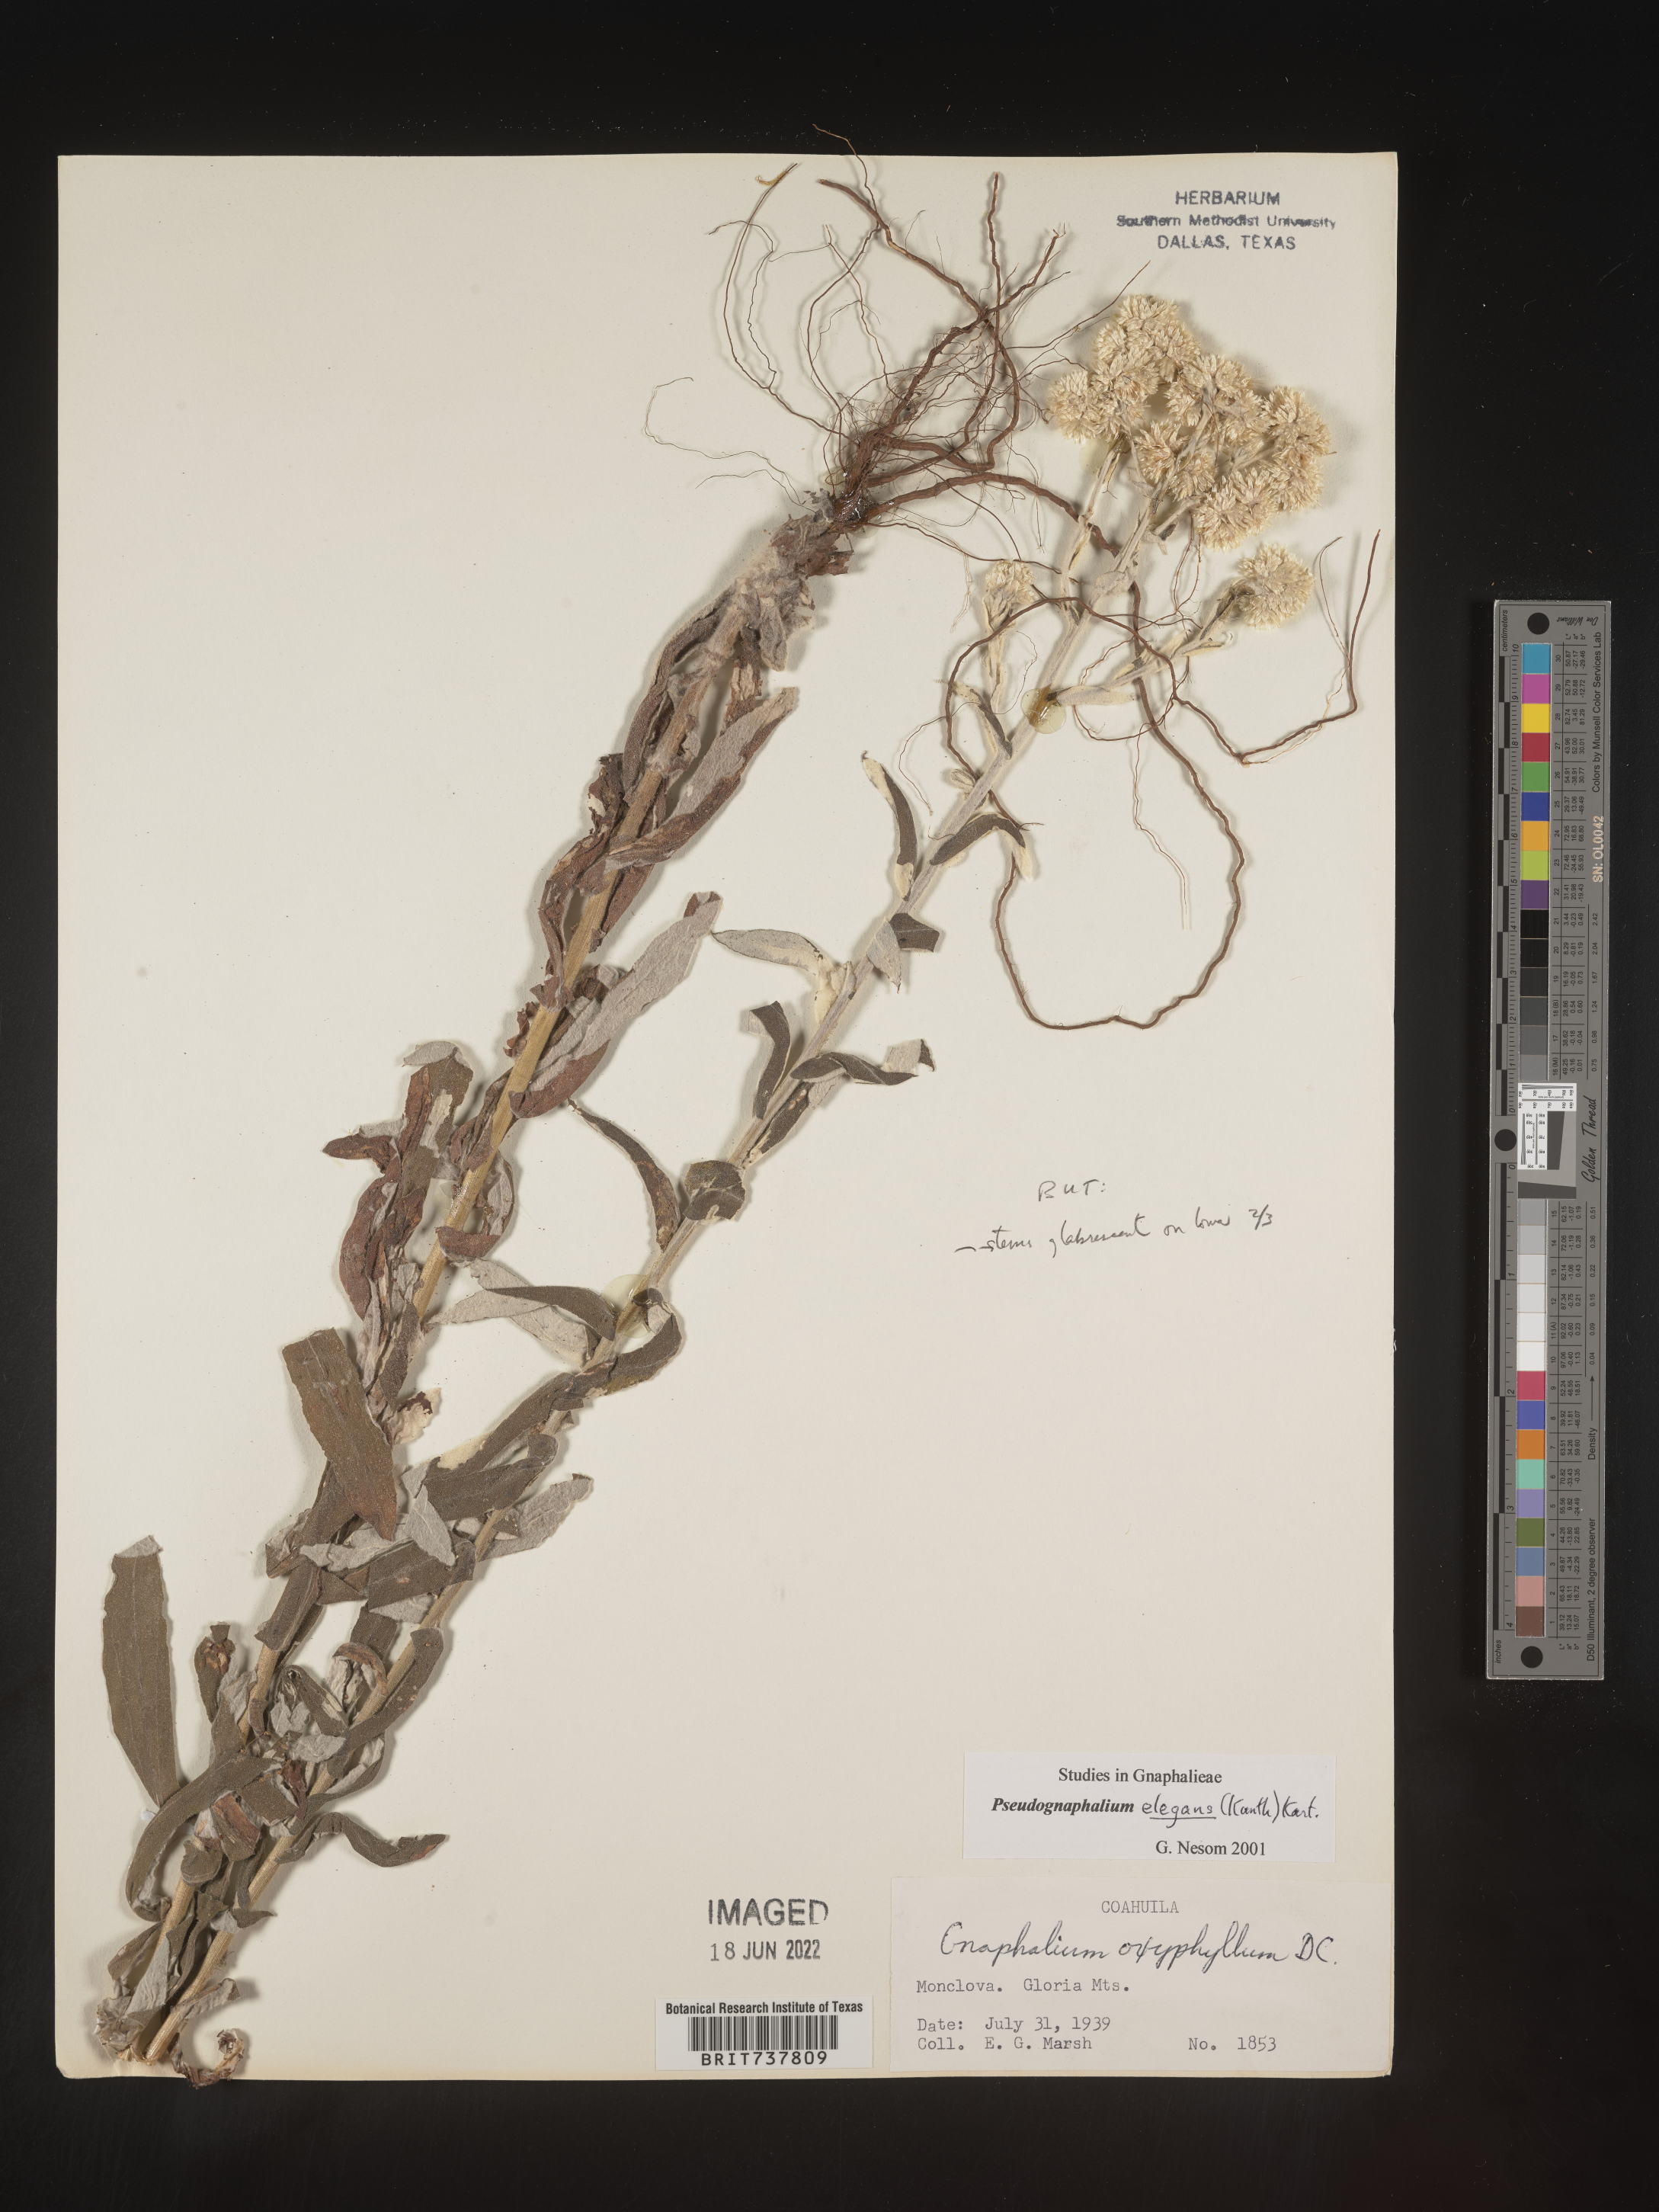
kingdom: Plantae
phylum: Tracheophyta
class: Magnoliopsida
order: Asterales
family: Asteraceae
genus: Pseudognaphalium
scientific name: Pseudognaphalium domingense
